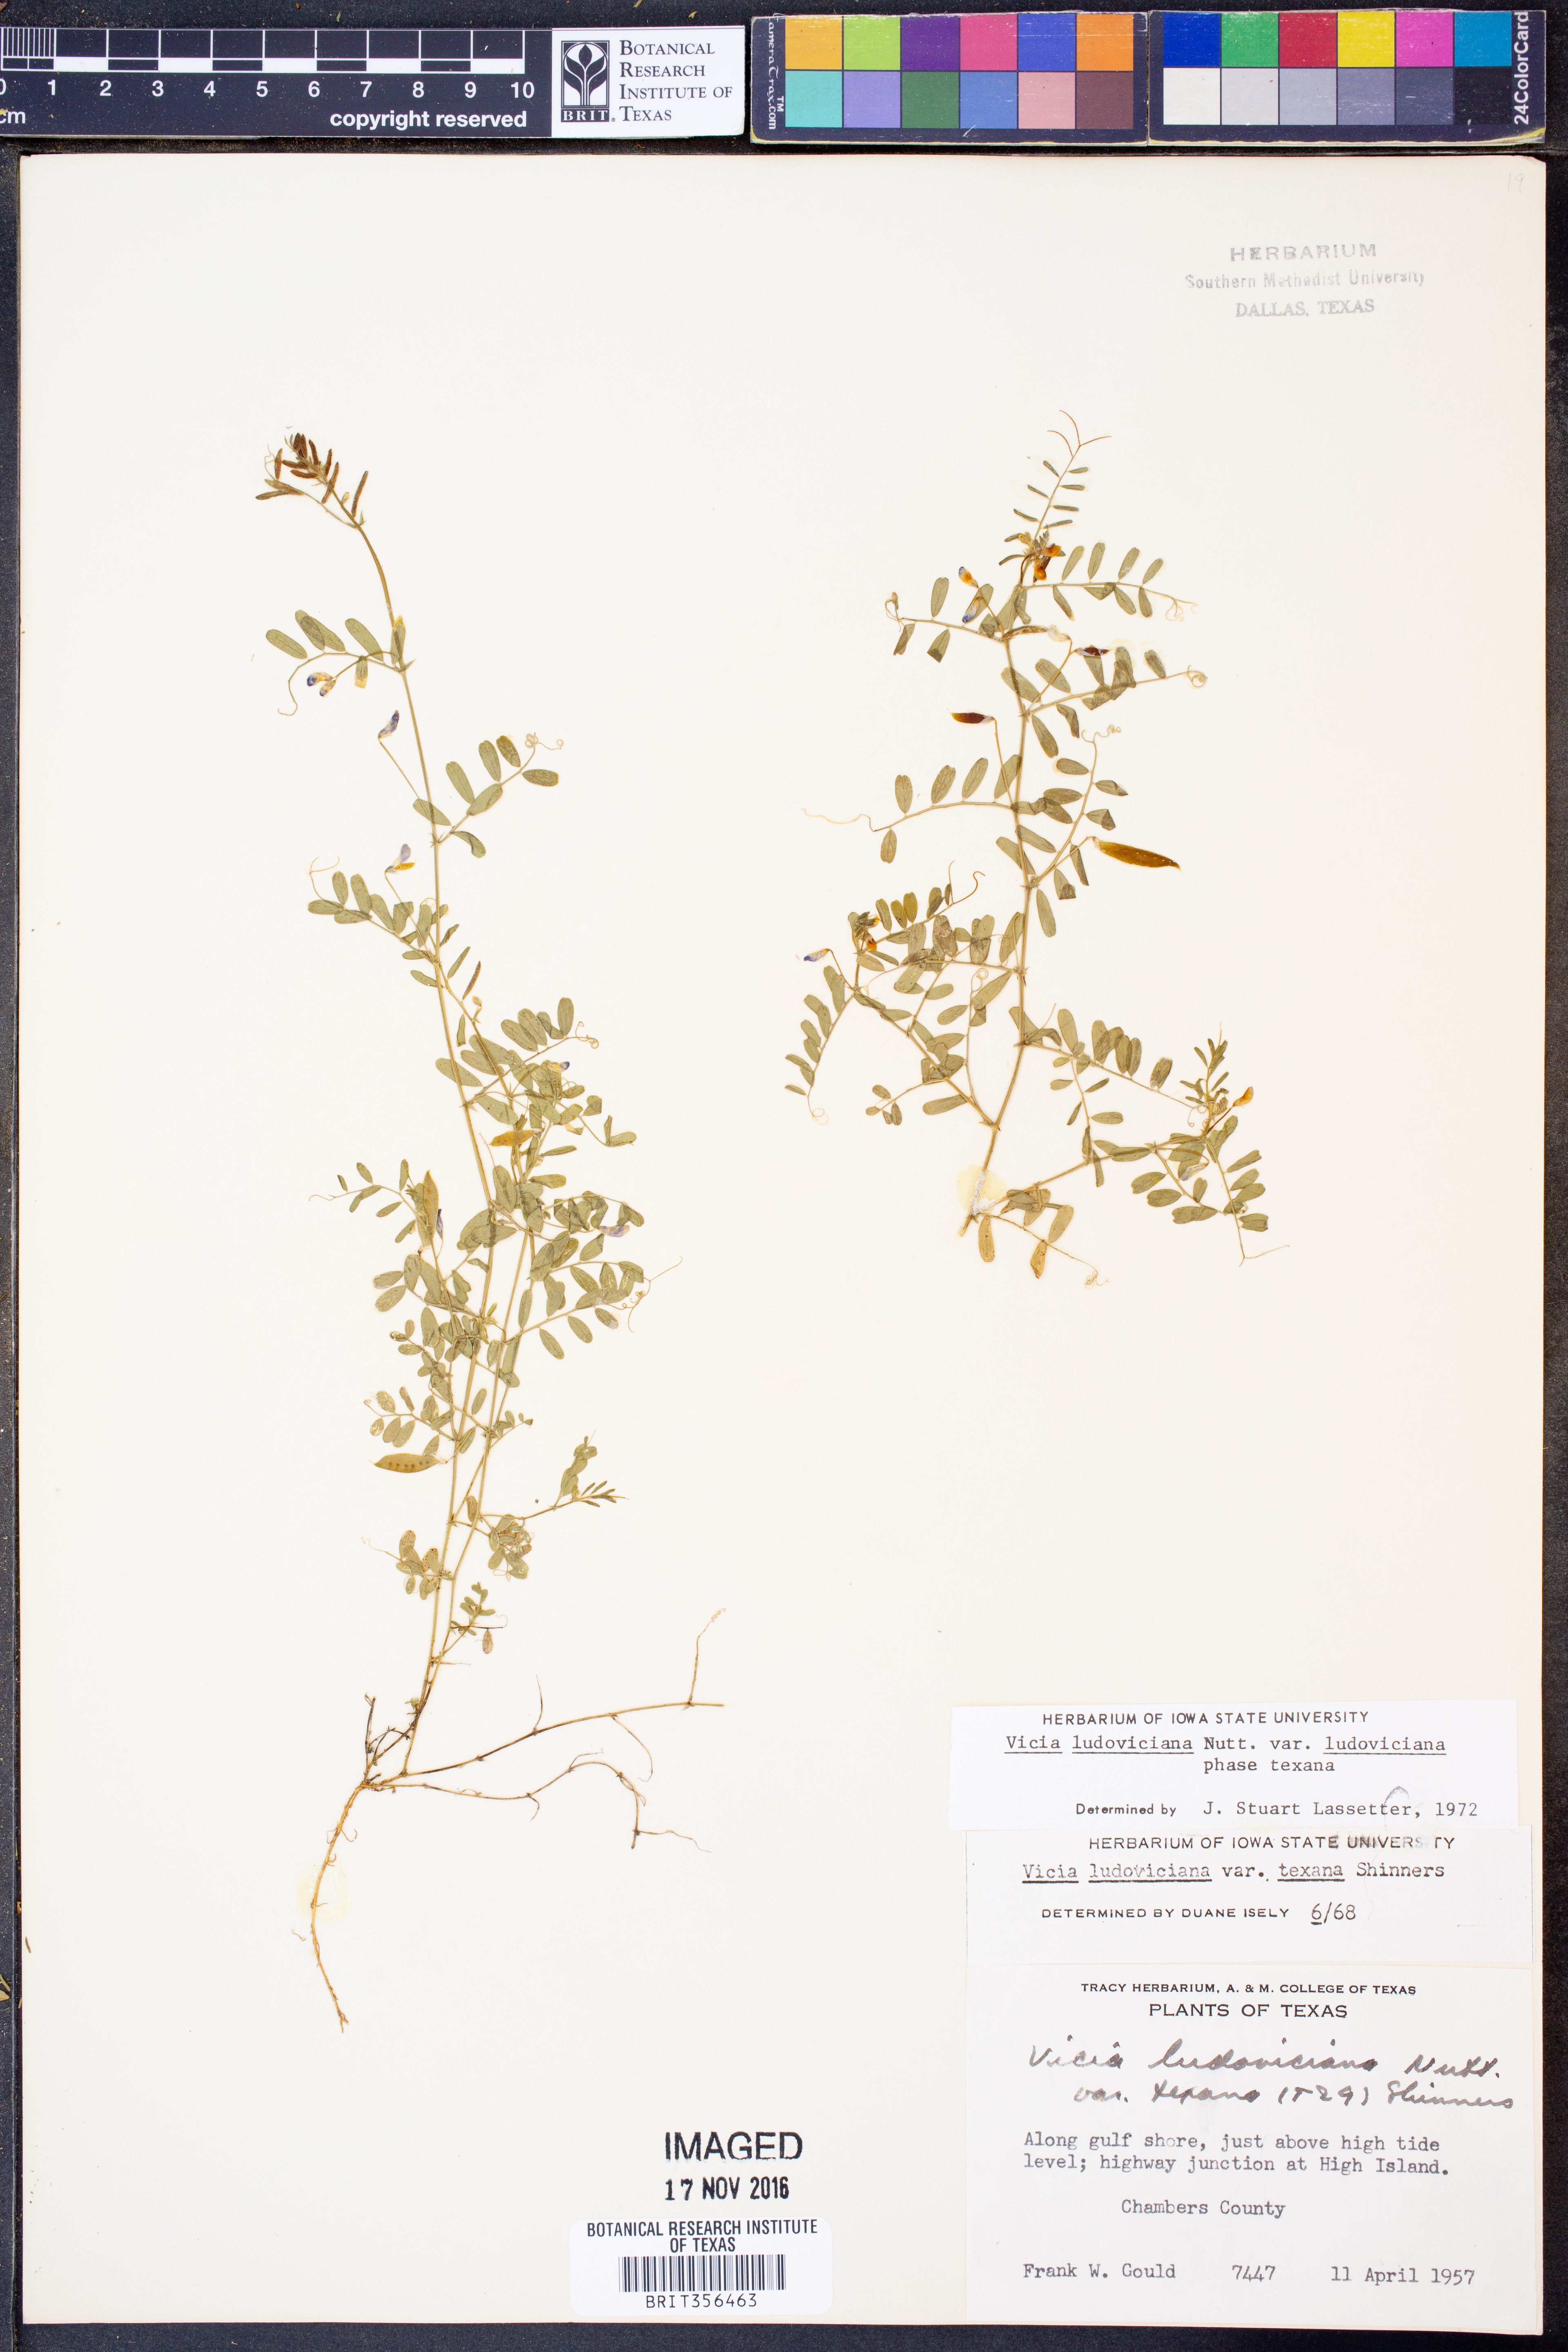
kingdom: Plantae
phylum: Tracheophyta
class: Magnoliopsida
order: Fabales
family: Fabaceae
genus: Vicia
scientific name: Vicia ludoviciana
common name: Louisiana vetch
